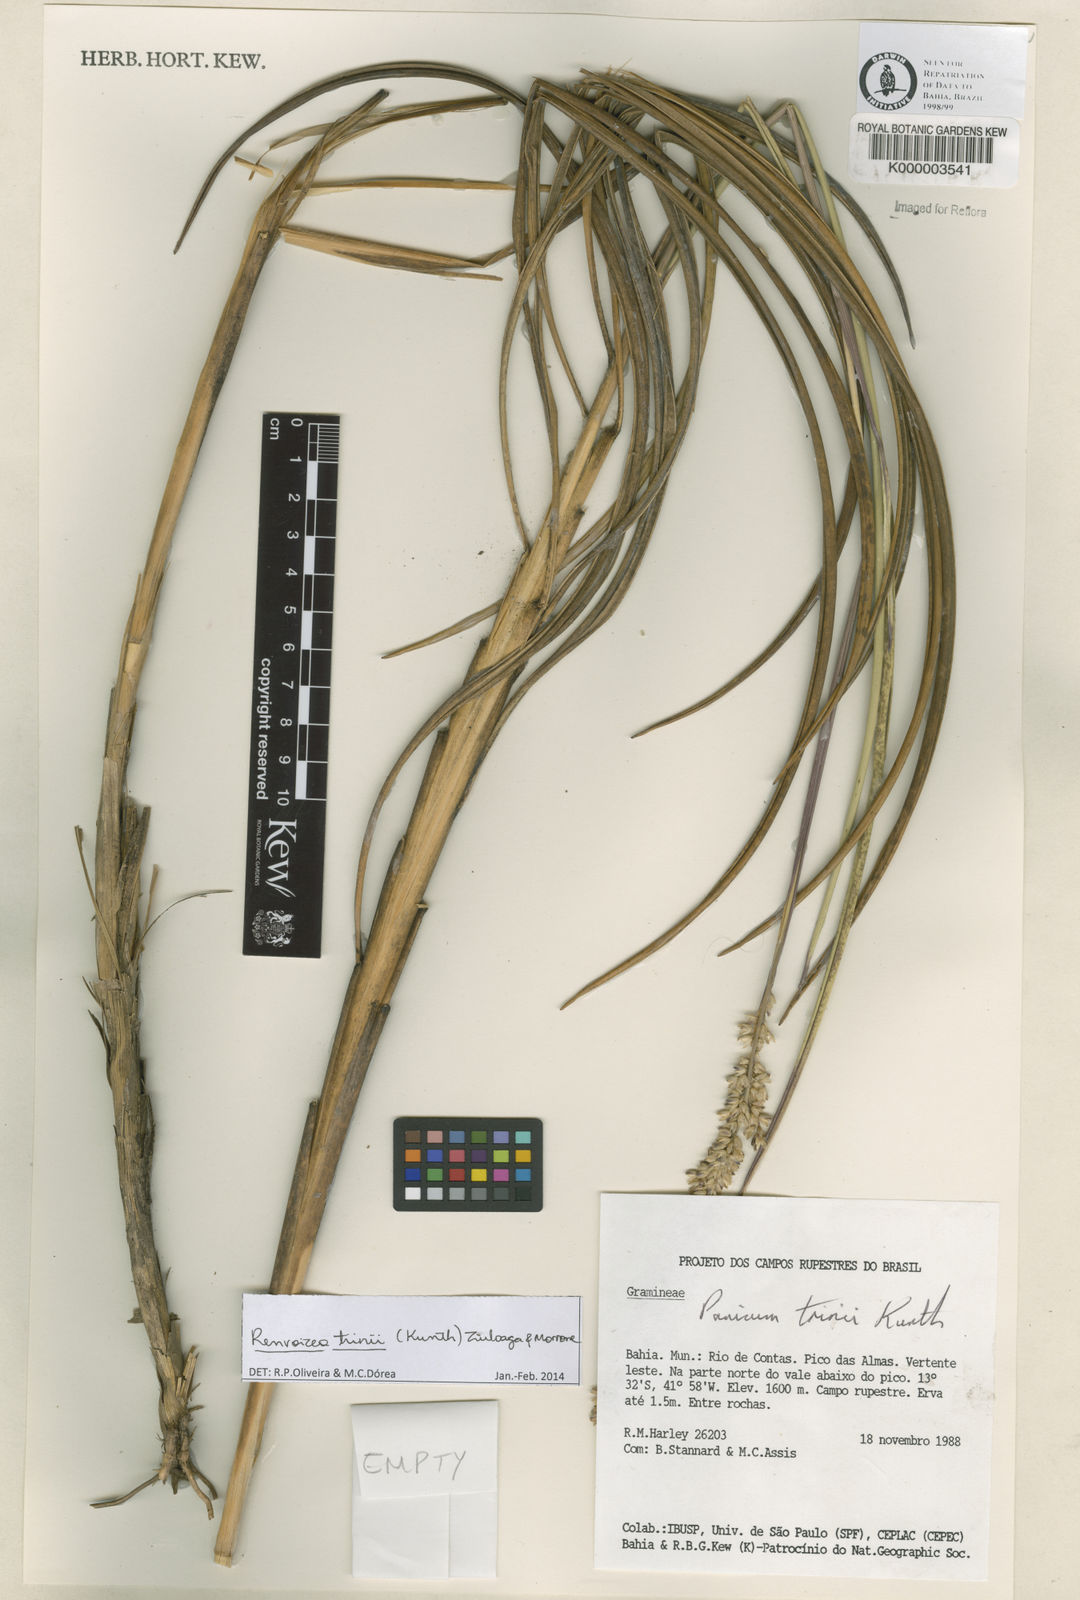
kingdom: Plantae
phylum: Tracheophyta
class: Liliopsida
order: Poales
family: Poaceae
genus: Renvoizea
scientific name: Renvoizea trinii
